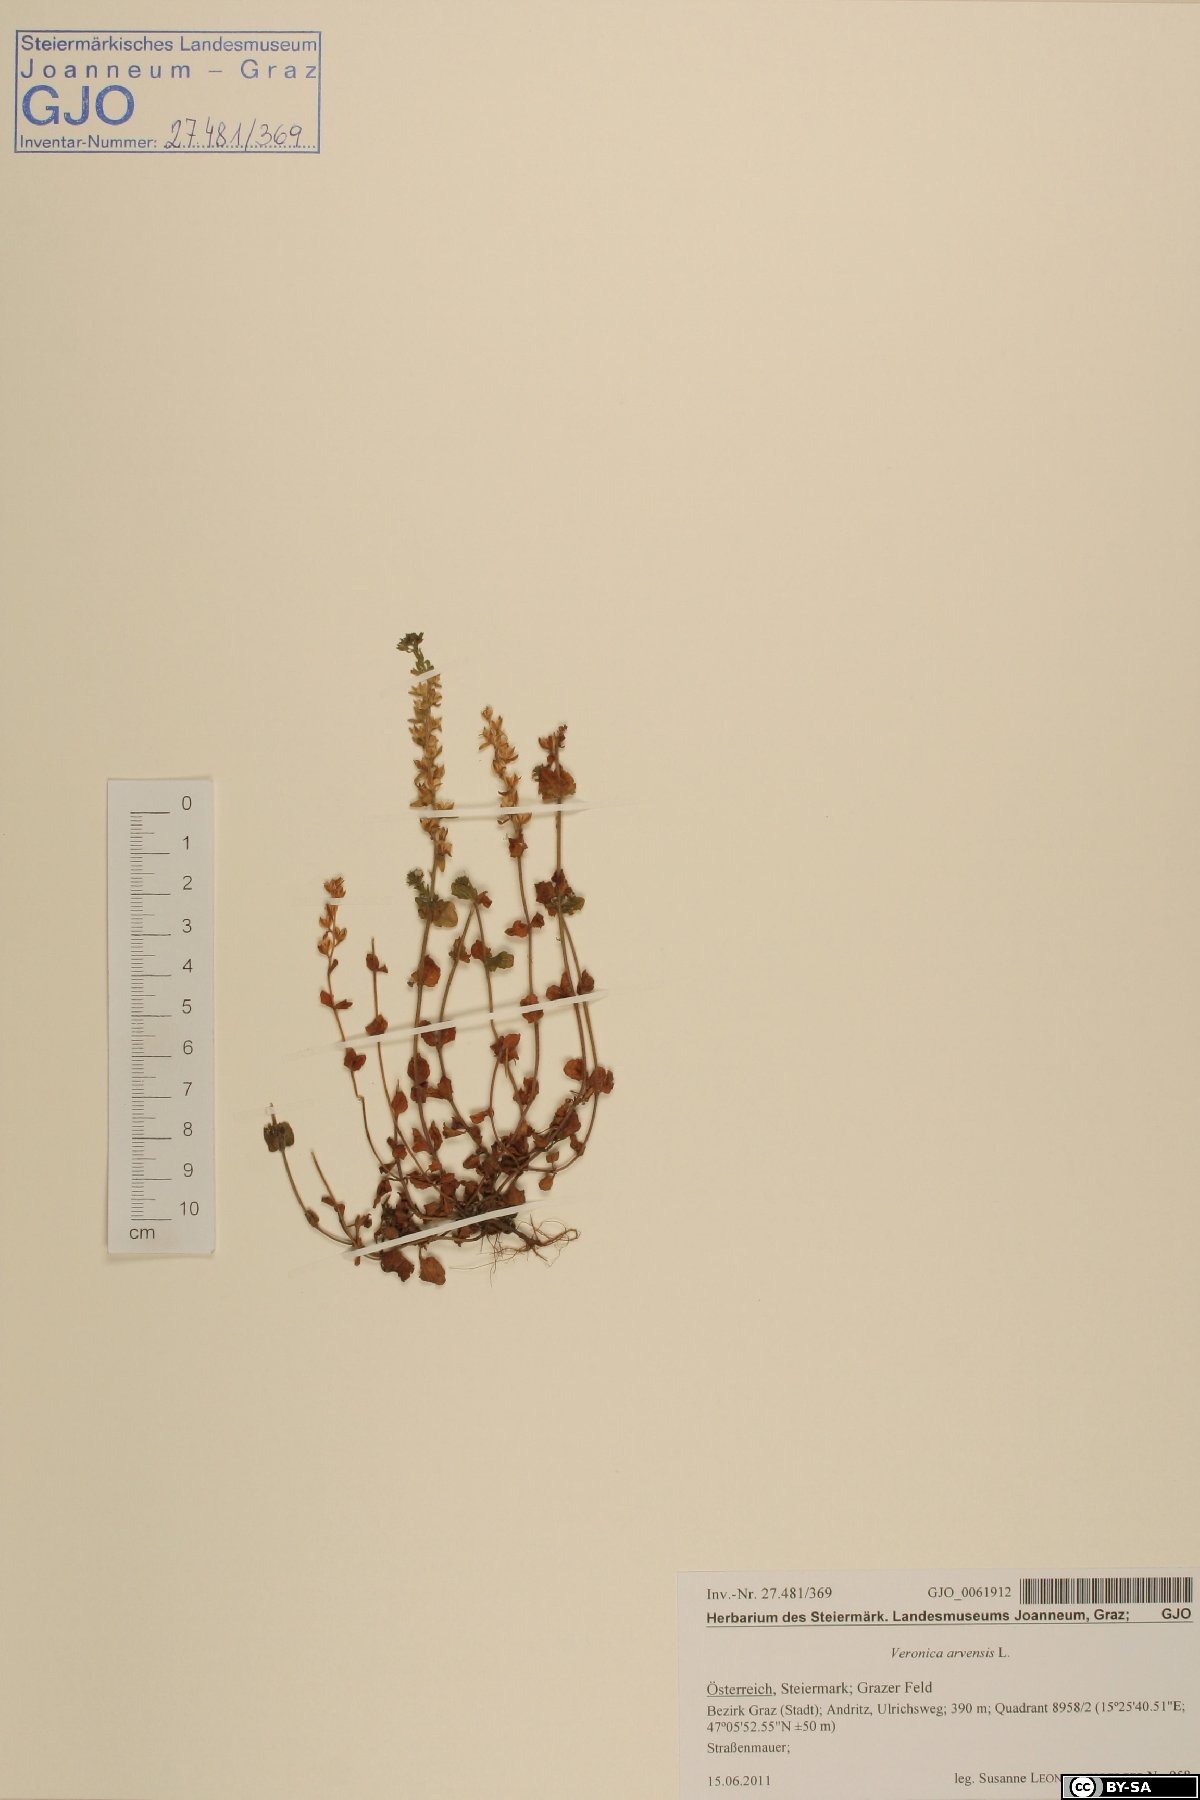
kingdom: Plantae
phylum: Tracheophyta
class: Magnoliopsida
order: Lamiales
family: Plantaginaceae
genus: Veronica
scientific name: Veronica arvensis
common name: Corn speedwell
